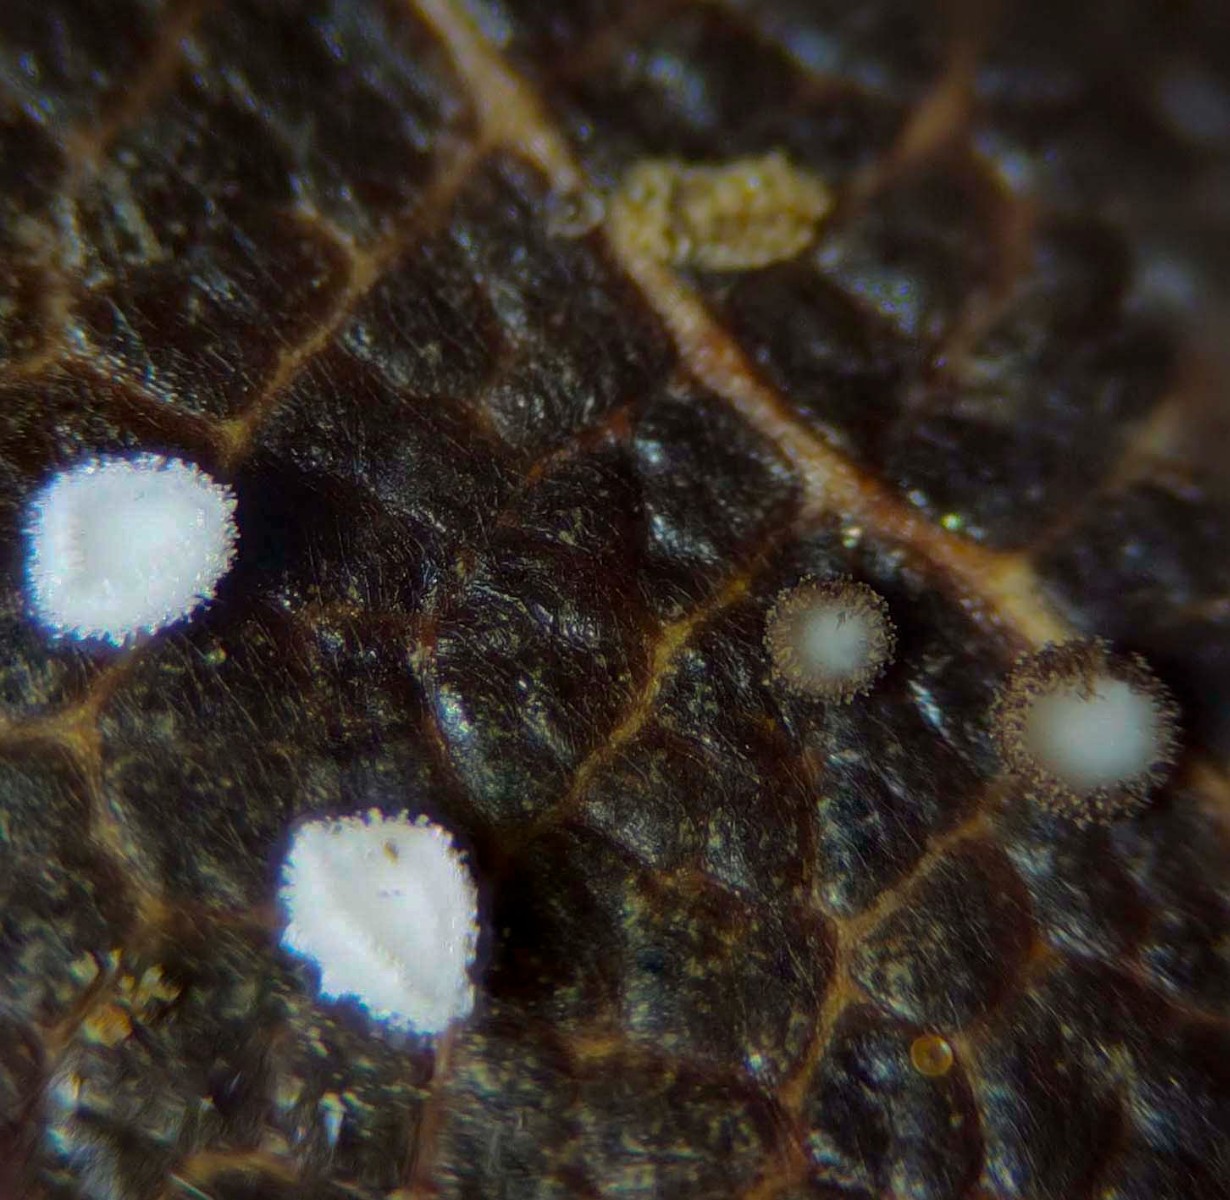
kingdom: Fungi
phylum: Ascomycota
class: Leotiomycetes
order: Helotiales
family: Lachnaceae
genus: Lachnum
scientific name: Lachnum rhytismatis
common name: blad-frynseskive
